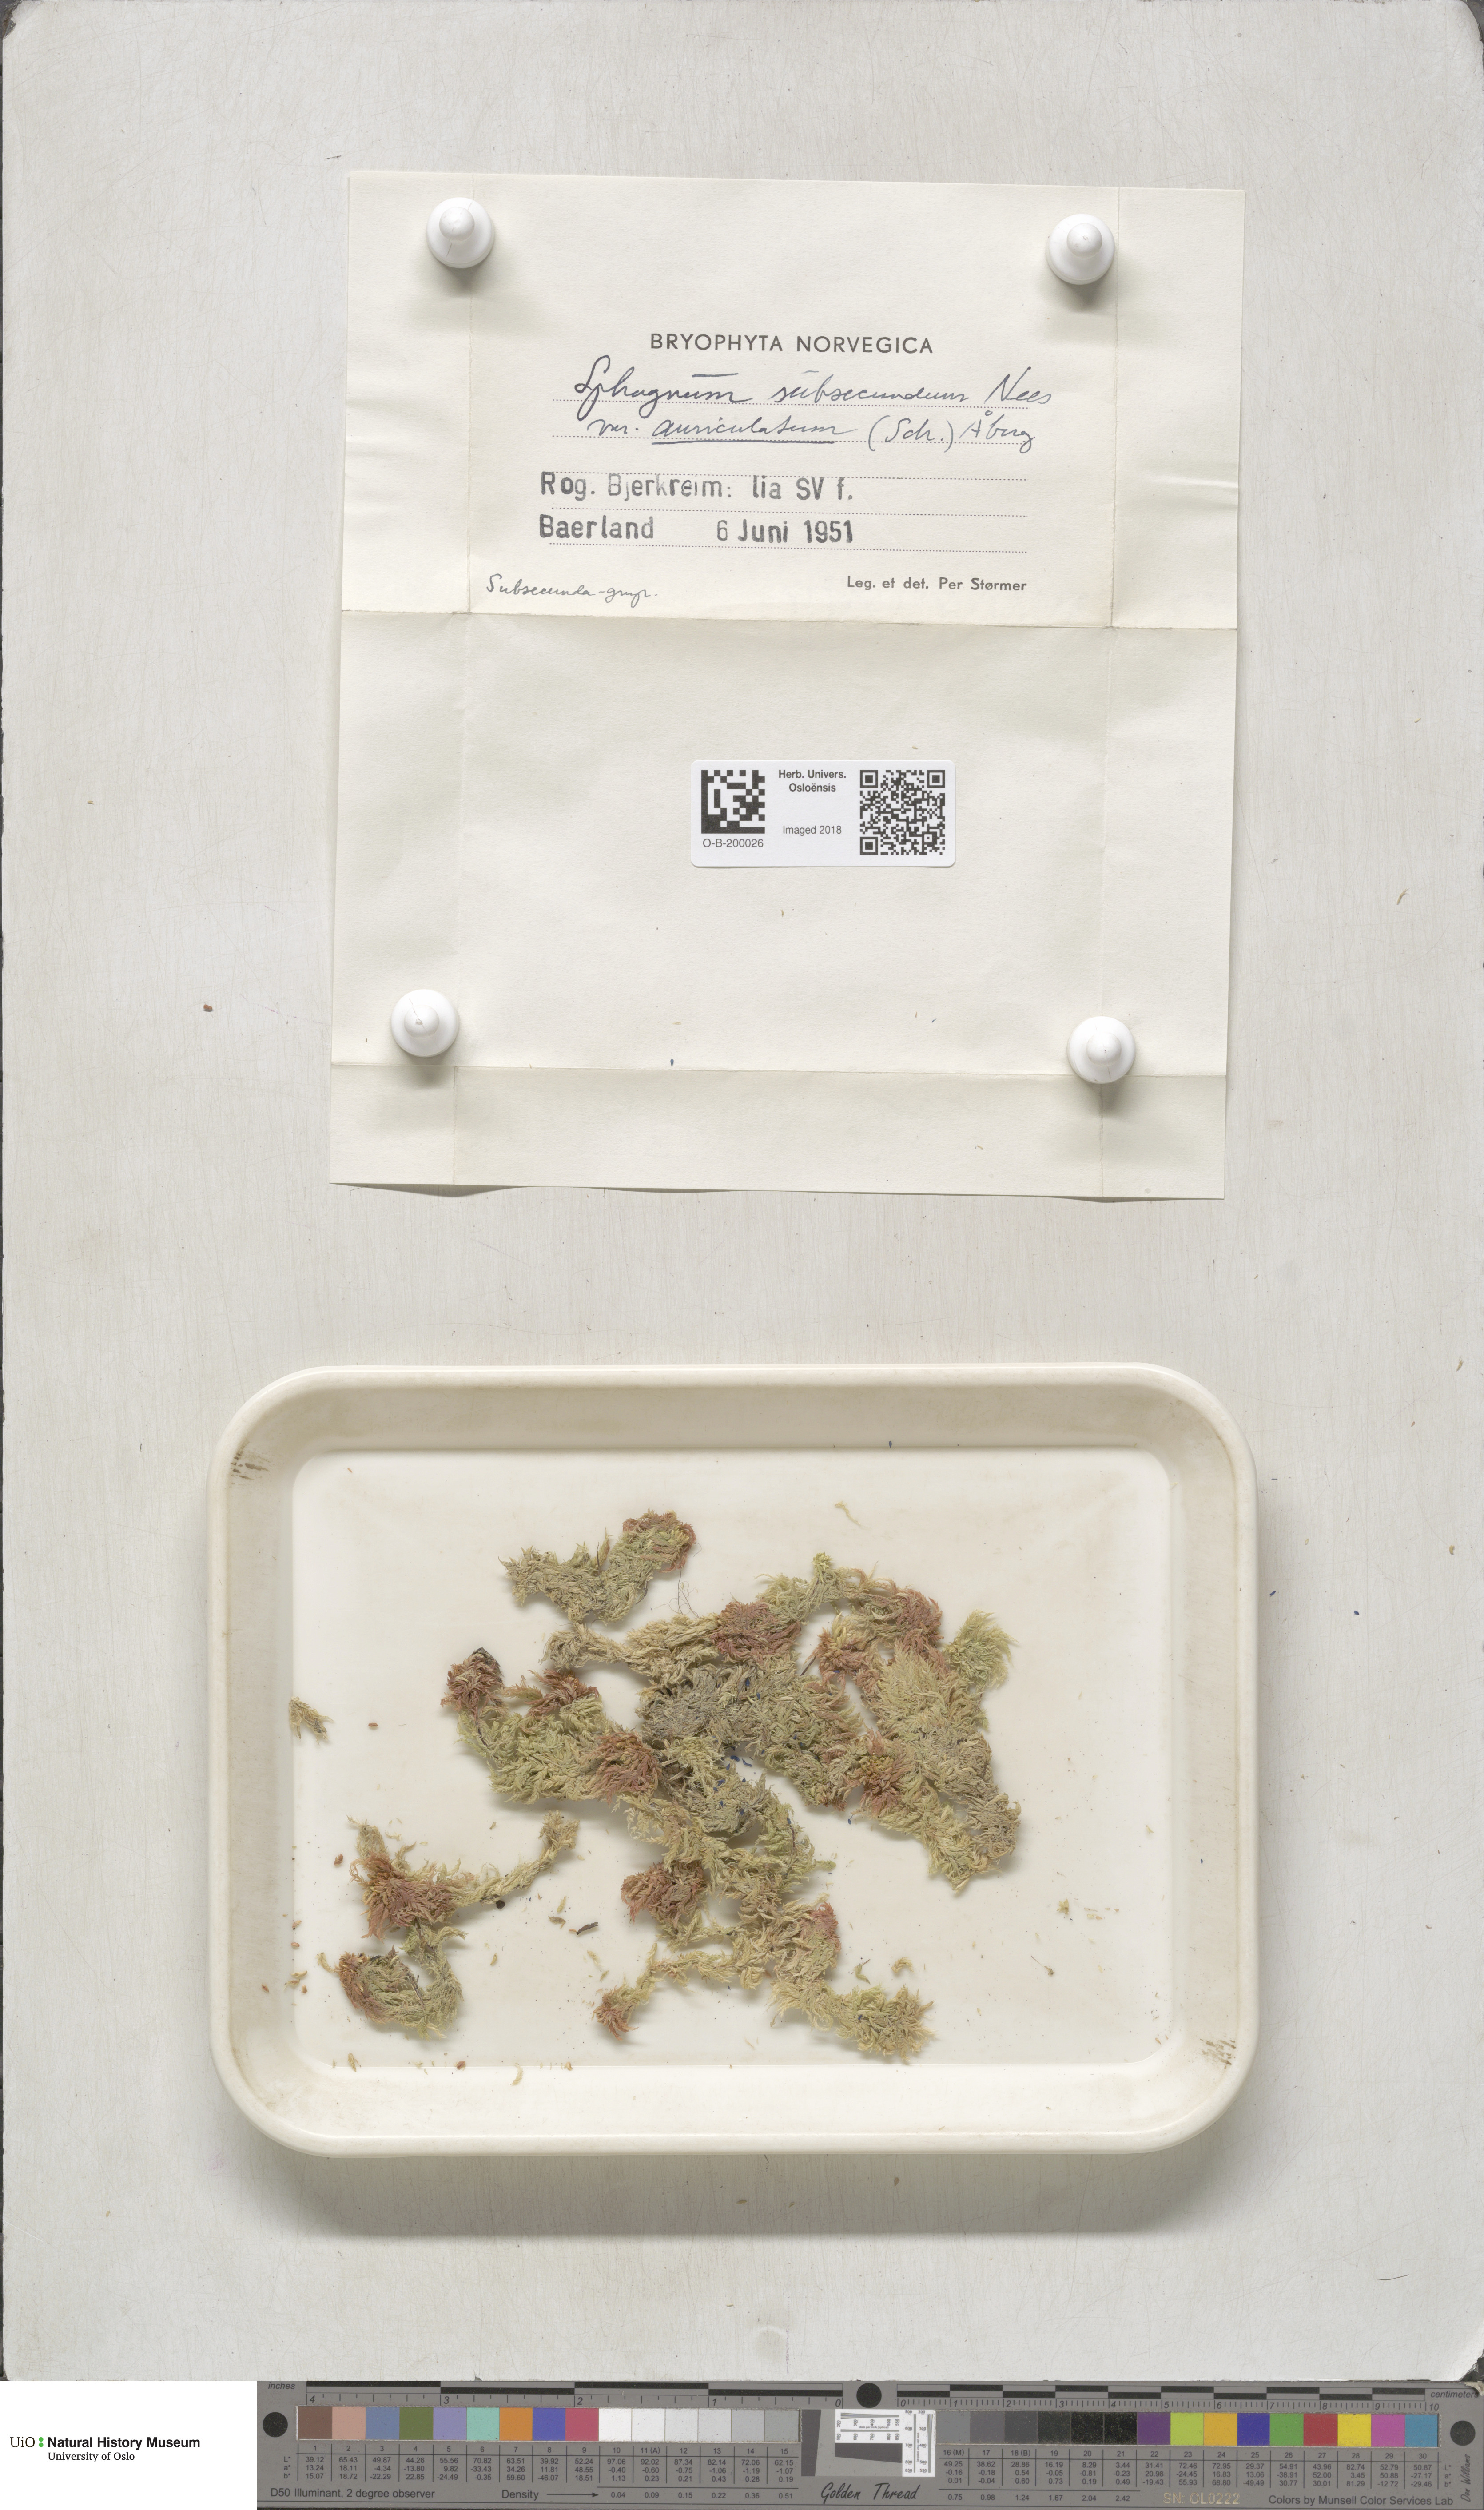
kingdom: Plantae
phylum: Bryophyta
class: Sphagnopsida
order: Sphagnales
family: Sphagnaceae
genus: Sphagnum
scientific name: Sphagnum denticulatum
